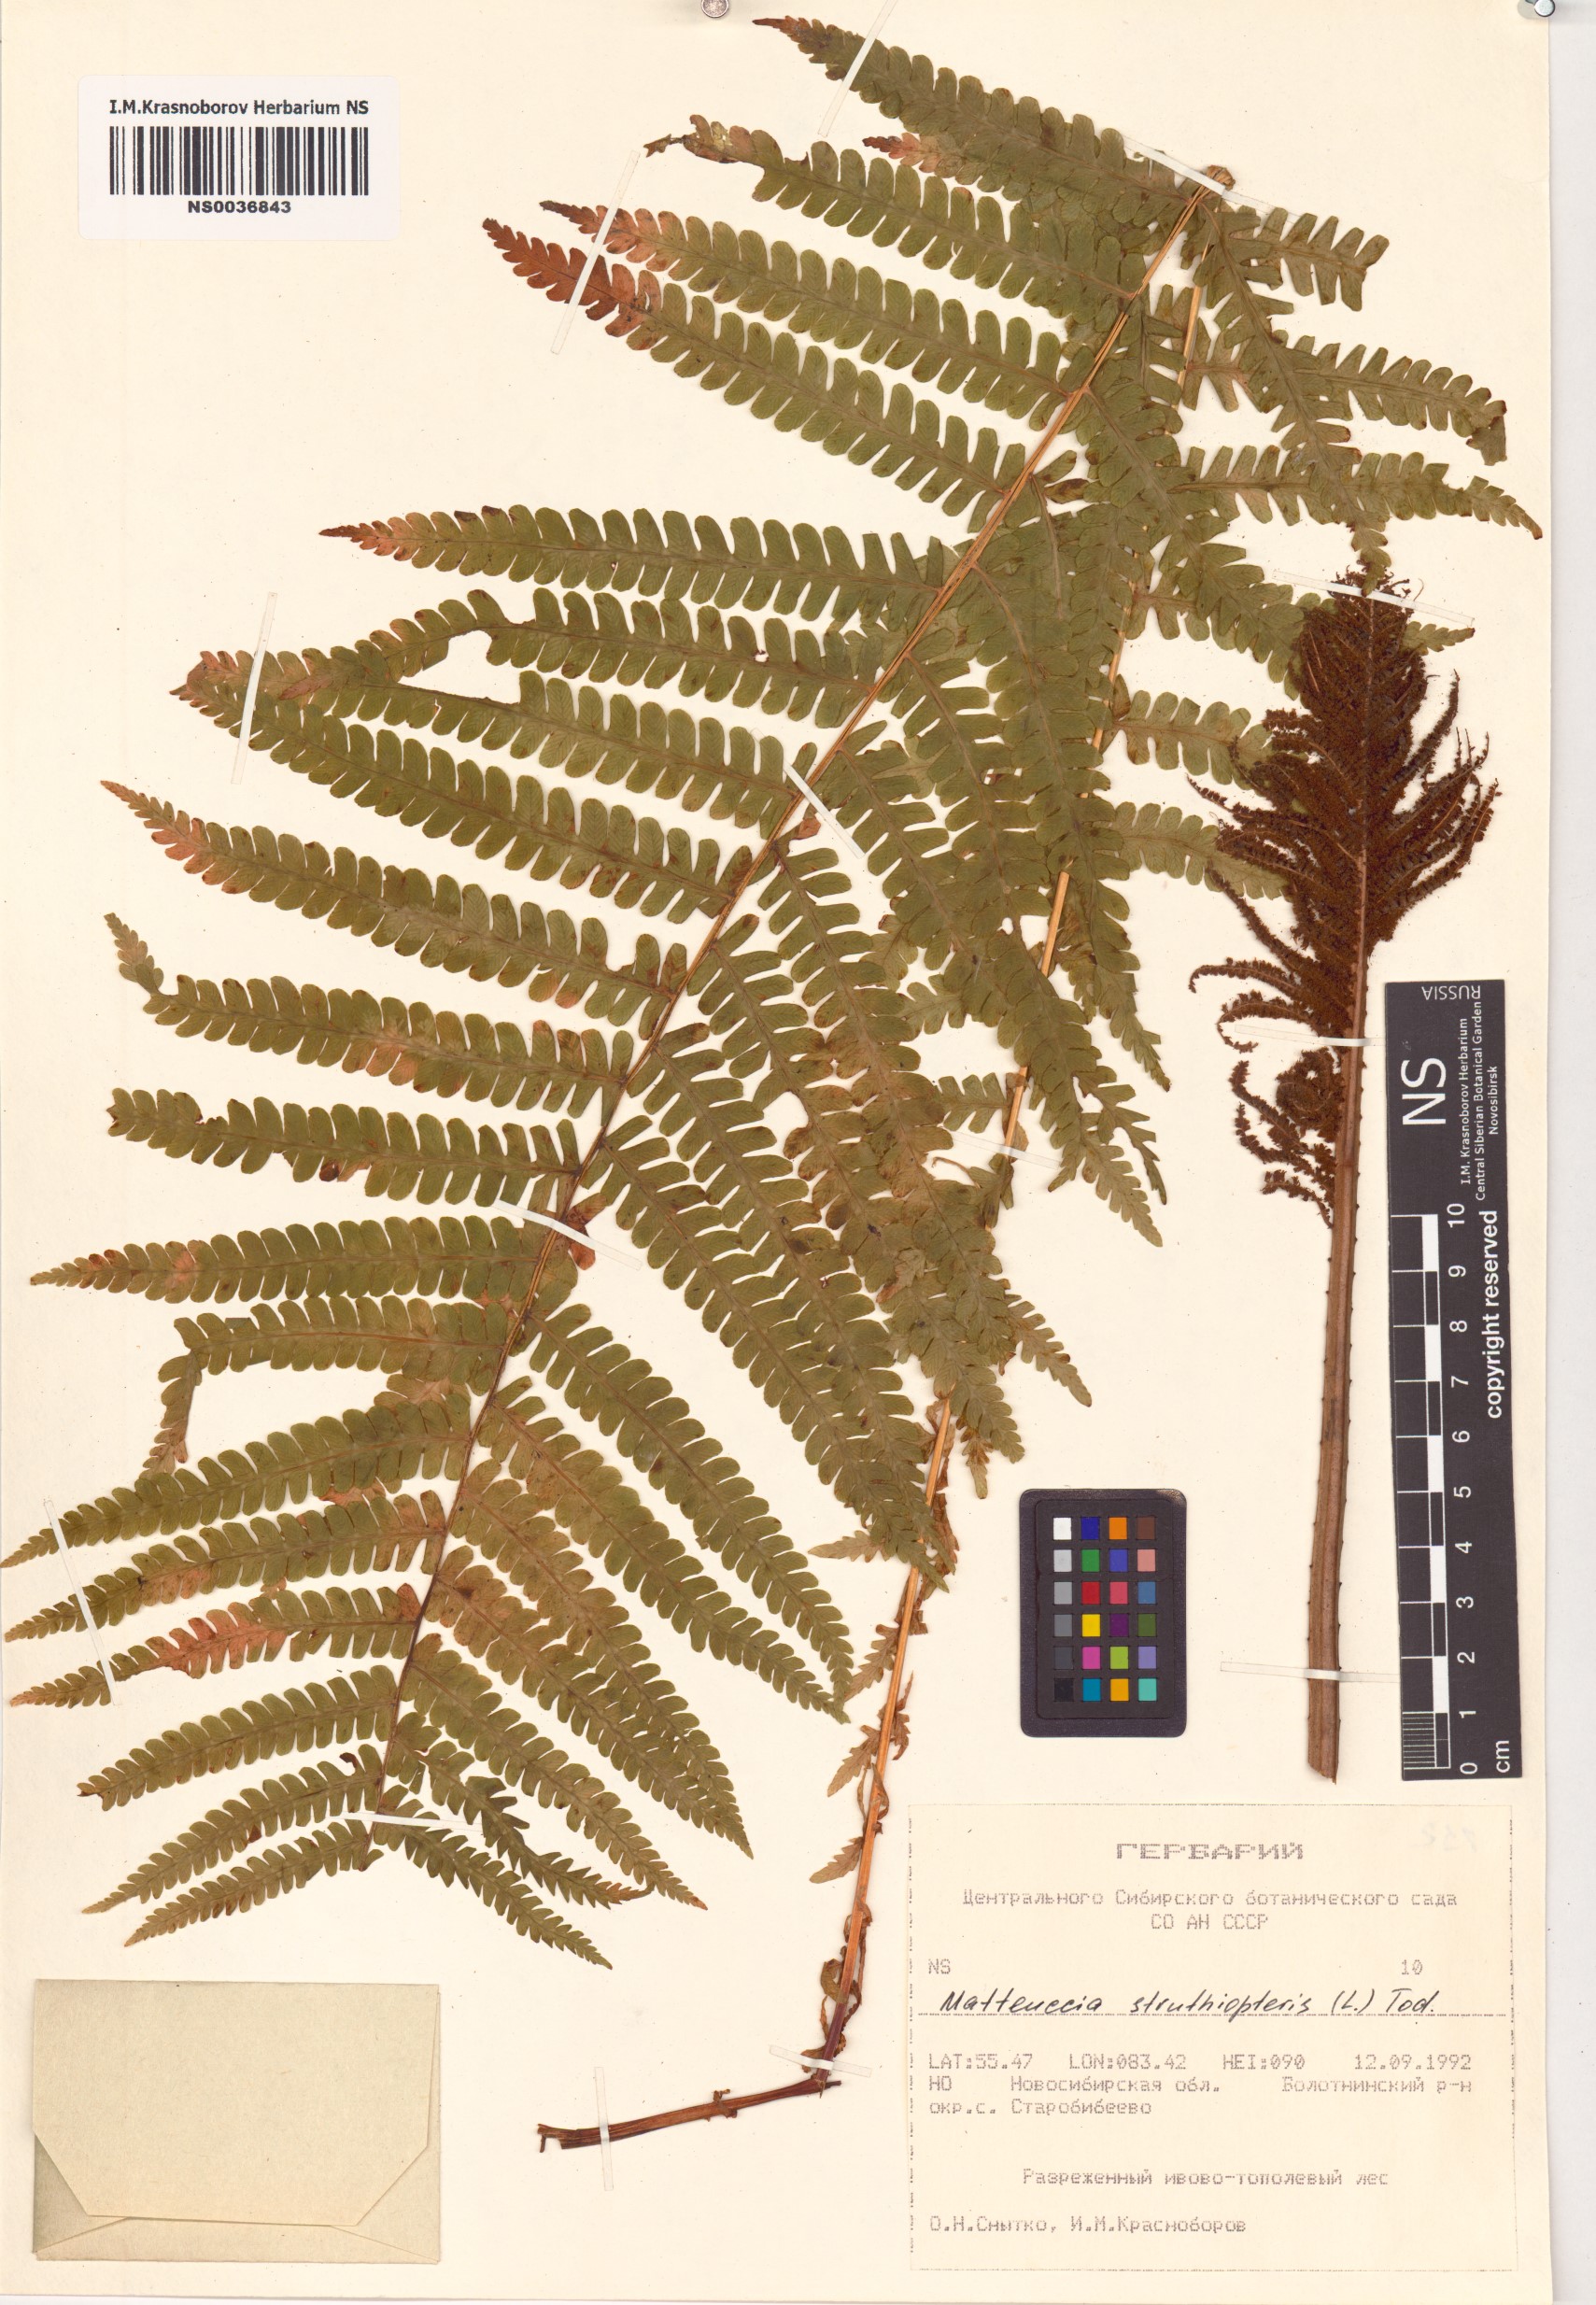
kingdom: Plantae
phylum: Tracheophyta
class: Polypodiopsida
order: Polypodiales
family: Onocleaceae
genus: Matteuccia
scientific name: Matteuccia struthiopteris
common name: Ostrich fern
